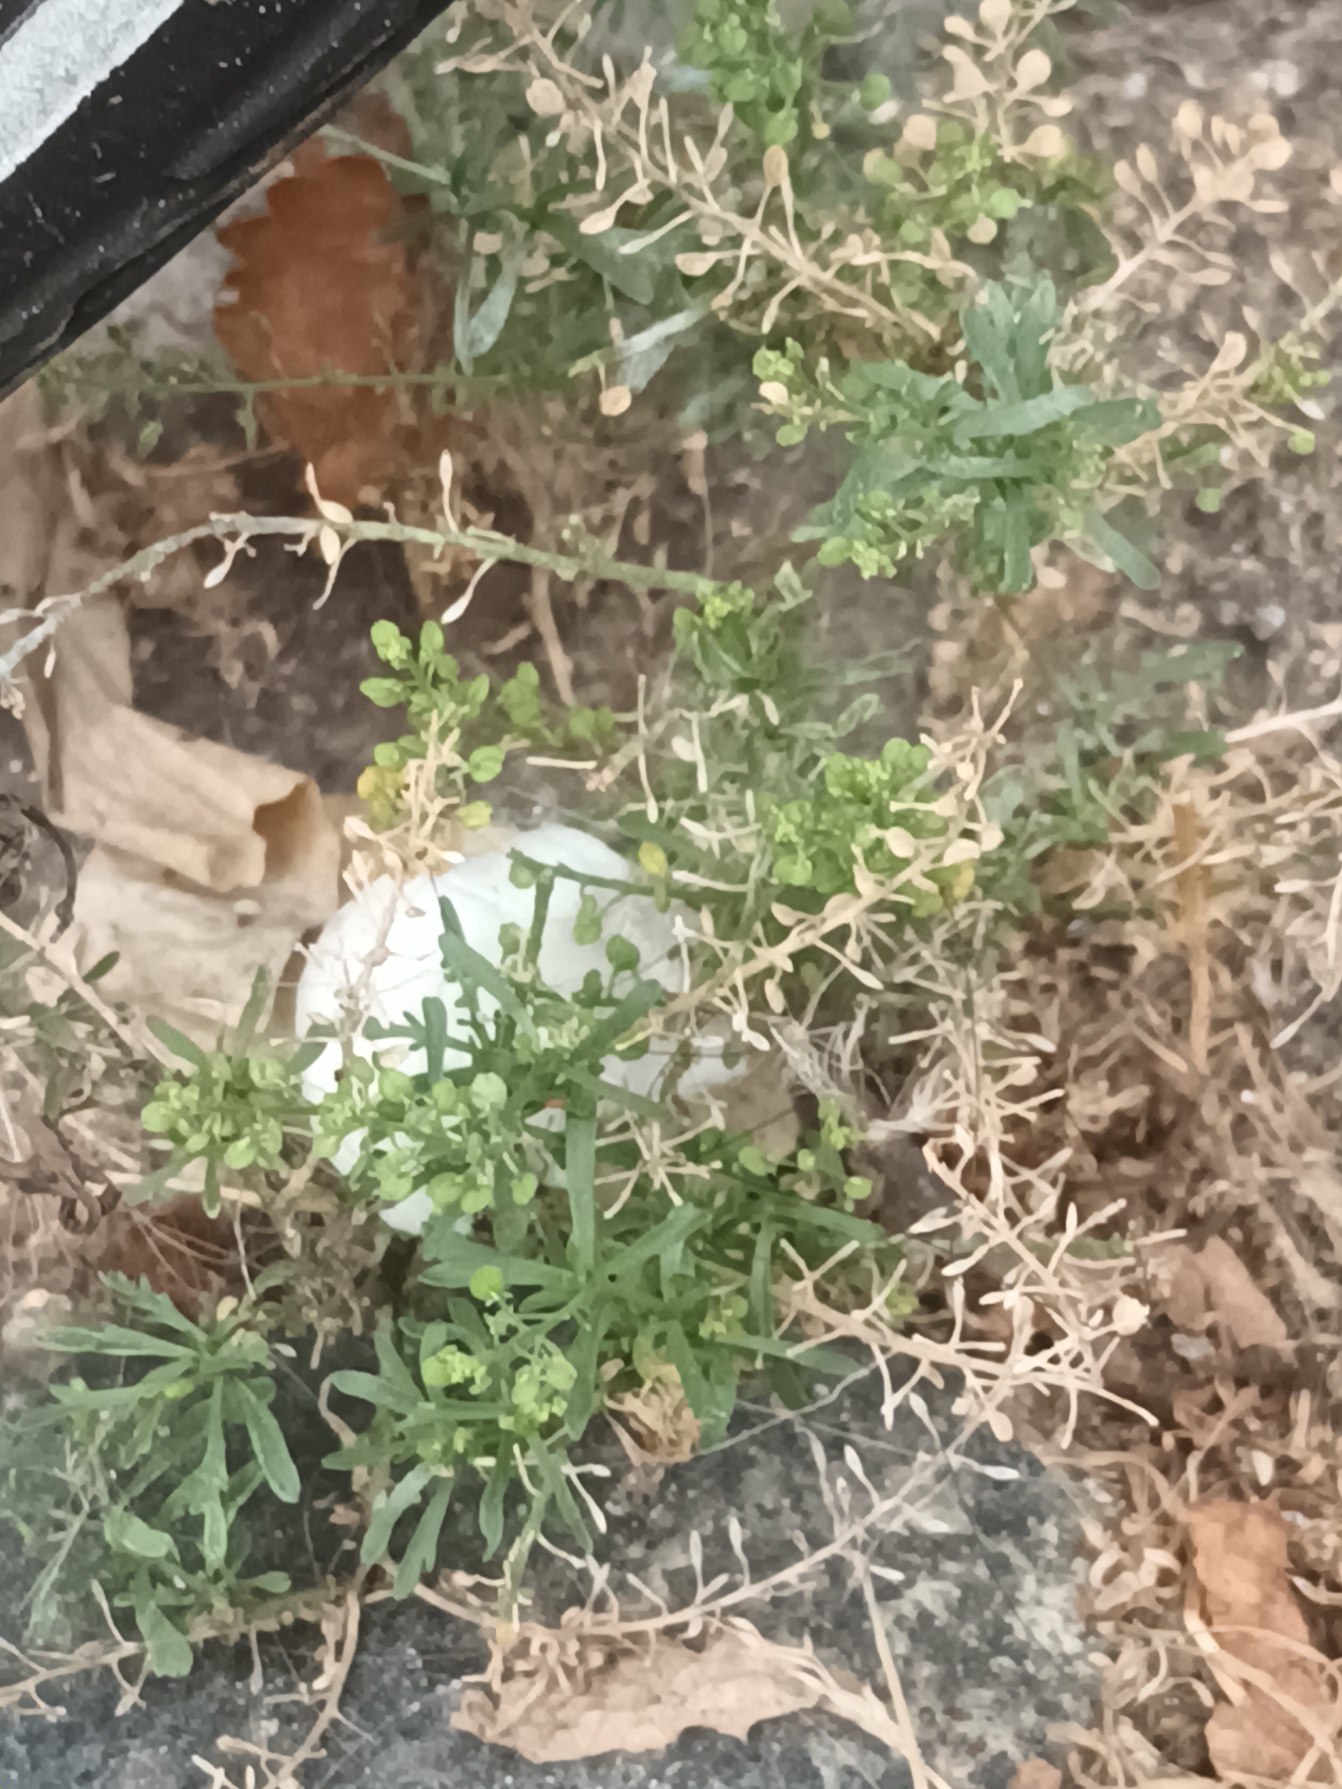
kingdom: Plantae
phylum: Tracheophyta
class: Magnoliopsida
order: Brassicales
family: Brassicaceae
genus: Lepidium
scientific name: Lepidium densiflorum
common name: Tætblomstret karse
